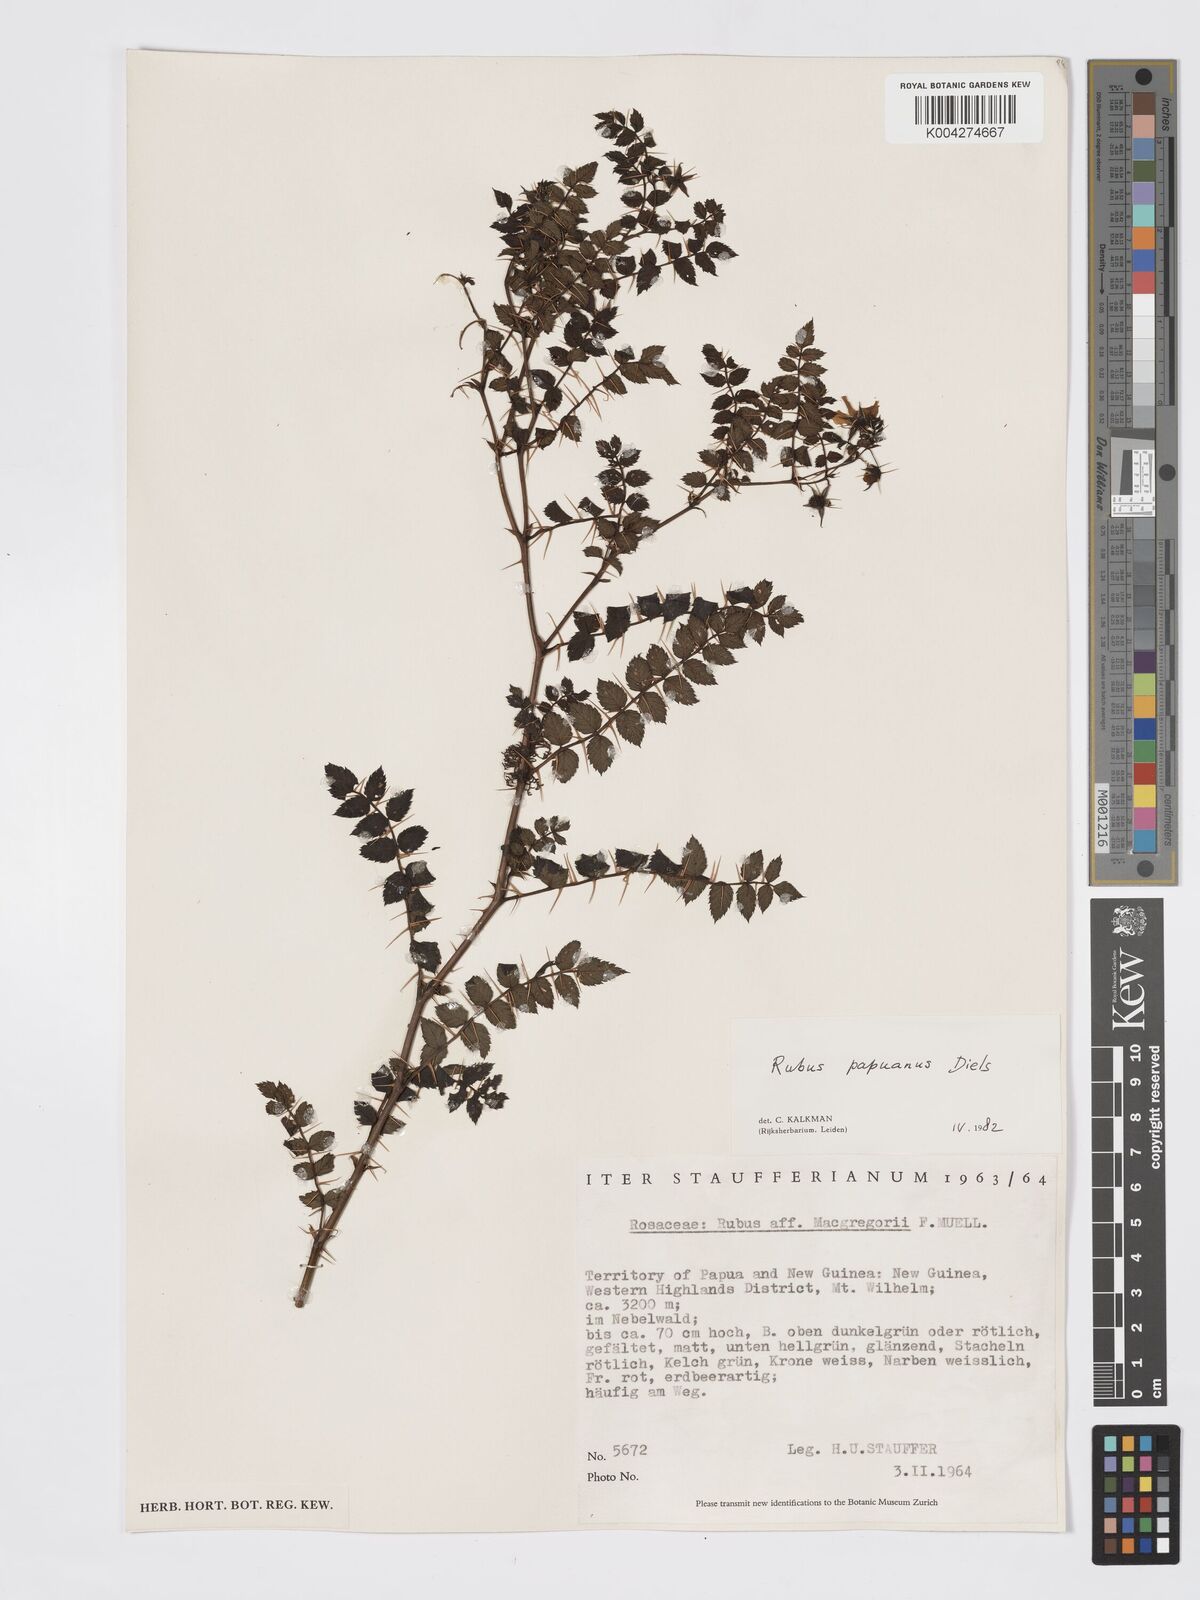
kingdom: Plantae
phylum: Tracheophyta
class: Magnoliopsida
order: Rosales
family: Rosaceae
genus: Rubus
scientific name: Rubus papuanus
